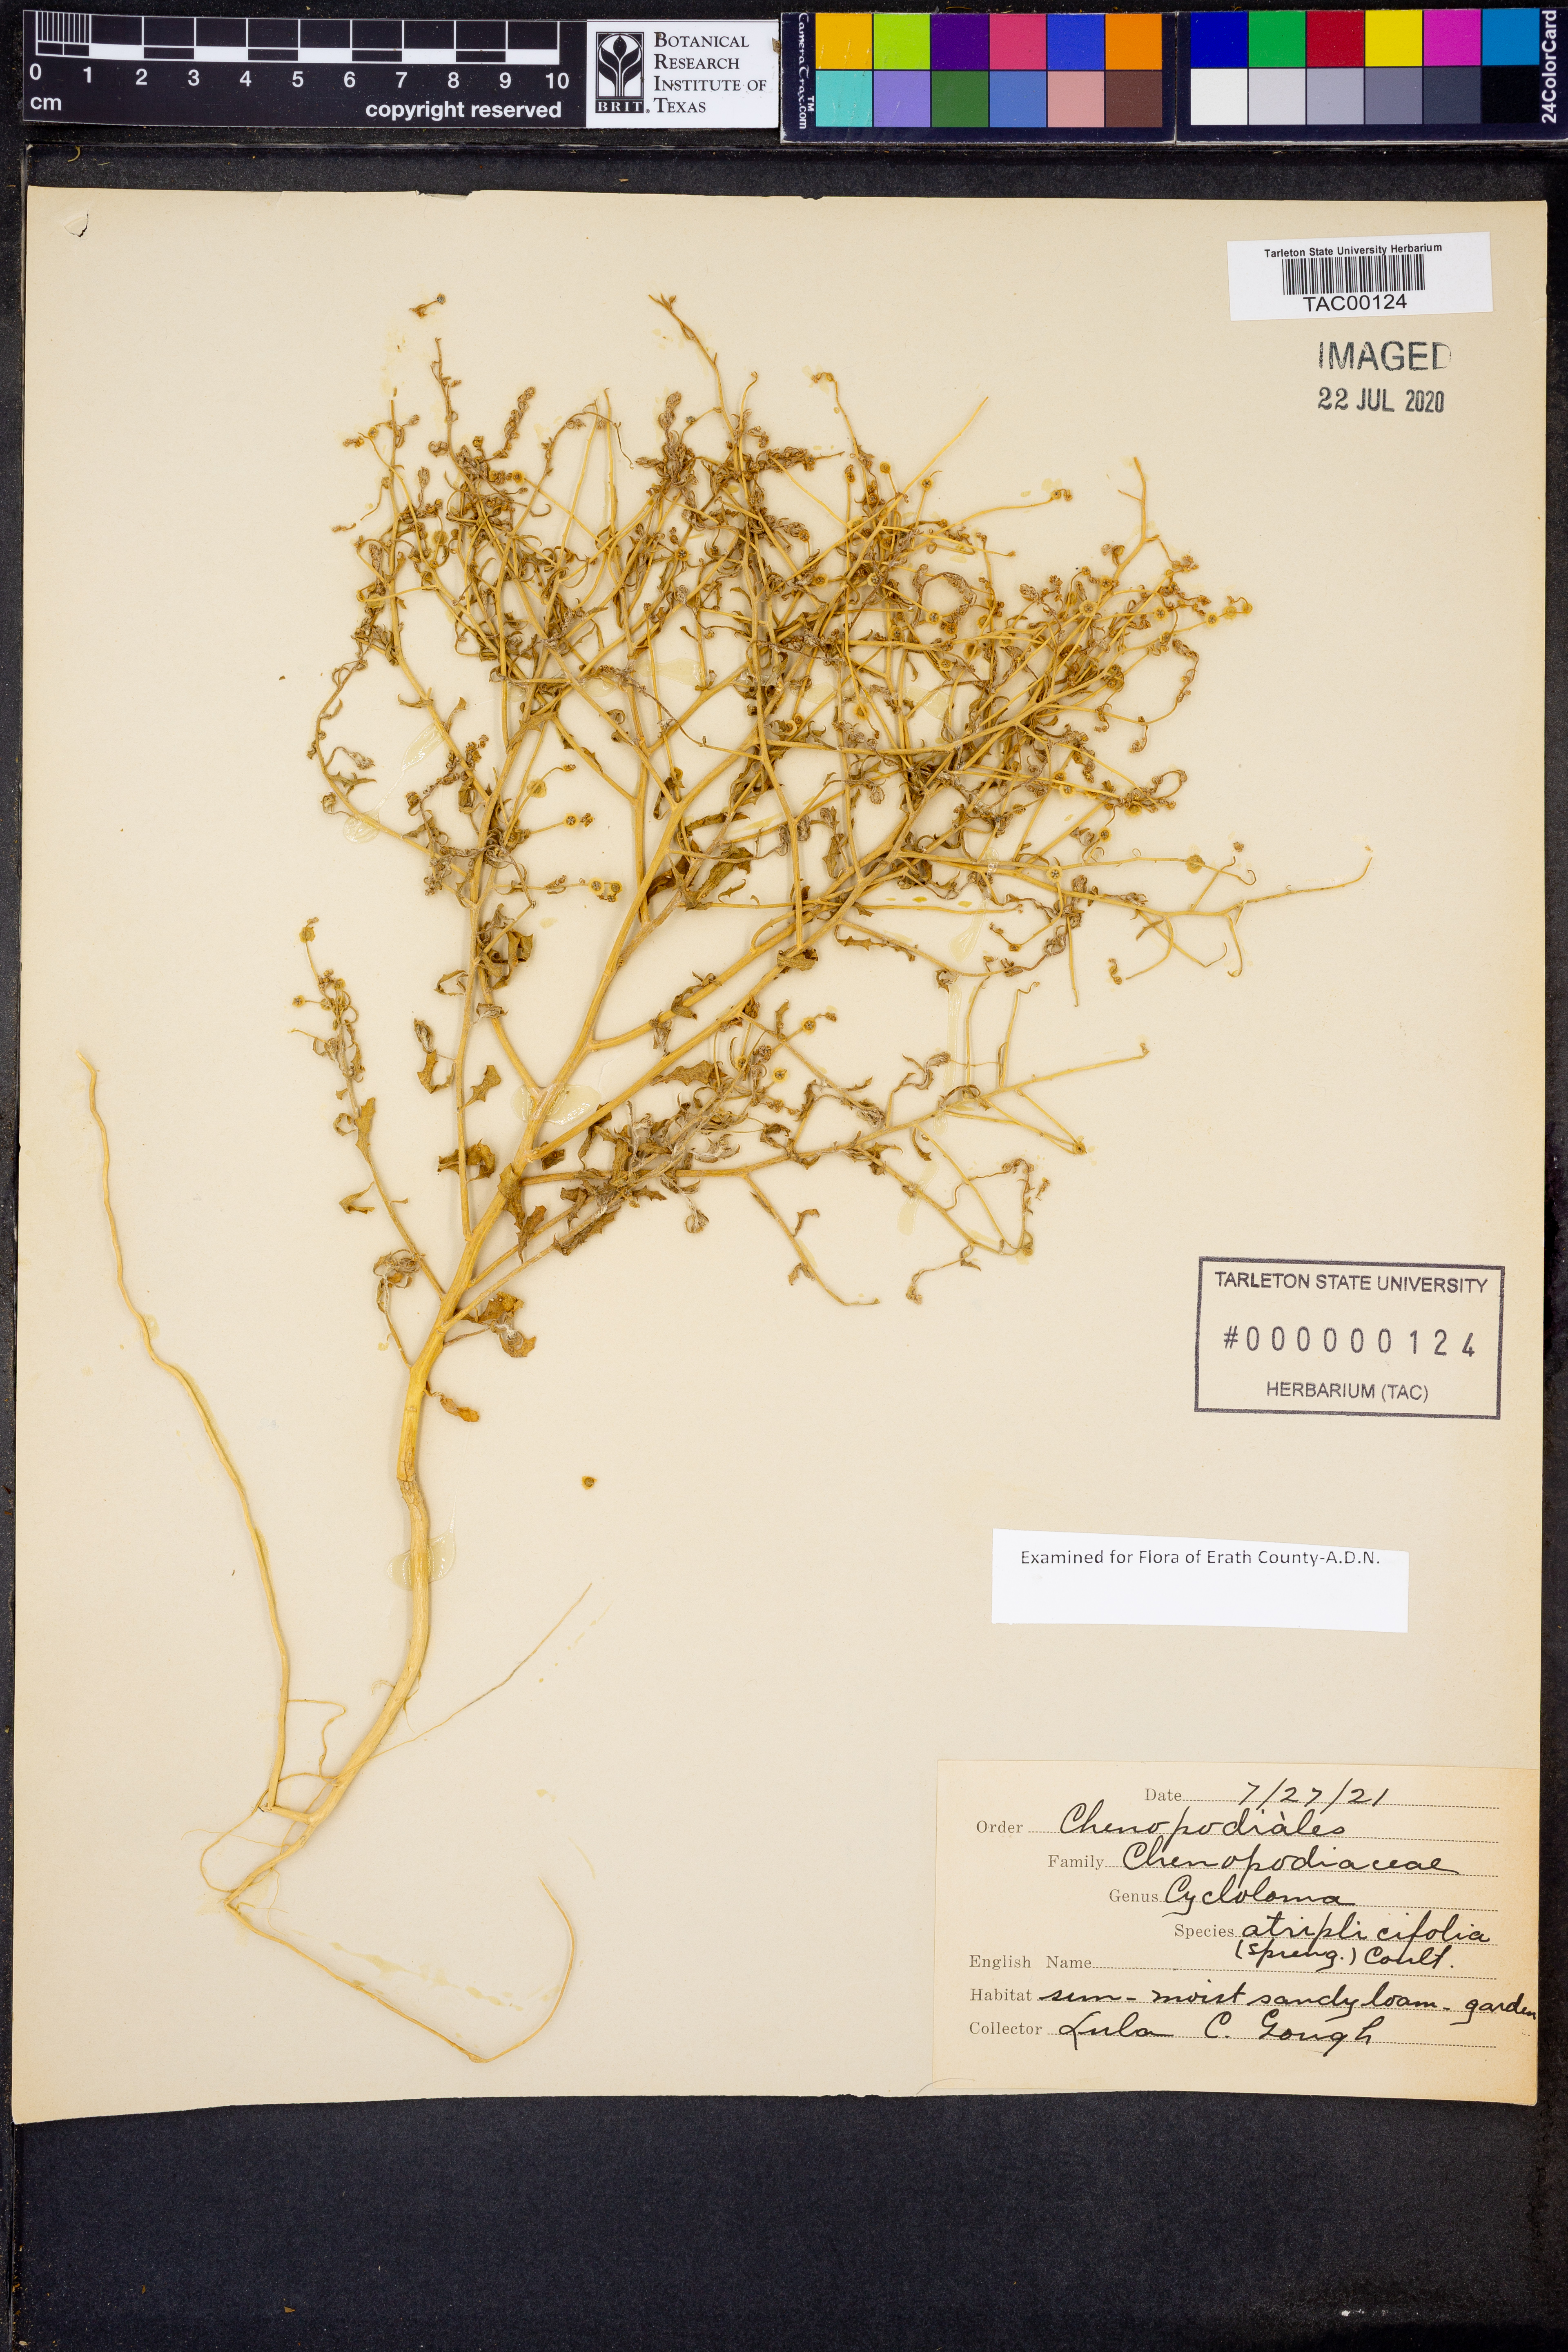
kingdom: Plantae
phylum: Tracheophyta
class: Magnoliopsida
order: Caryophyllales
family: Amaranthaceae
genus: Dysphania
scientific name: Dysphania atriplicifolia
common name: Plains tumbleweed
